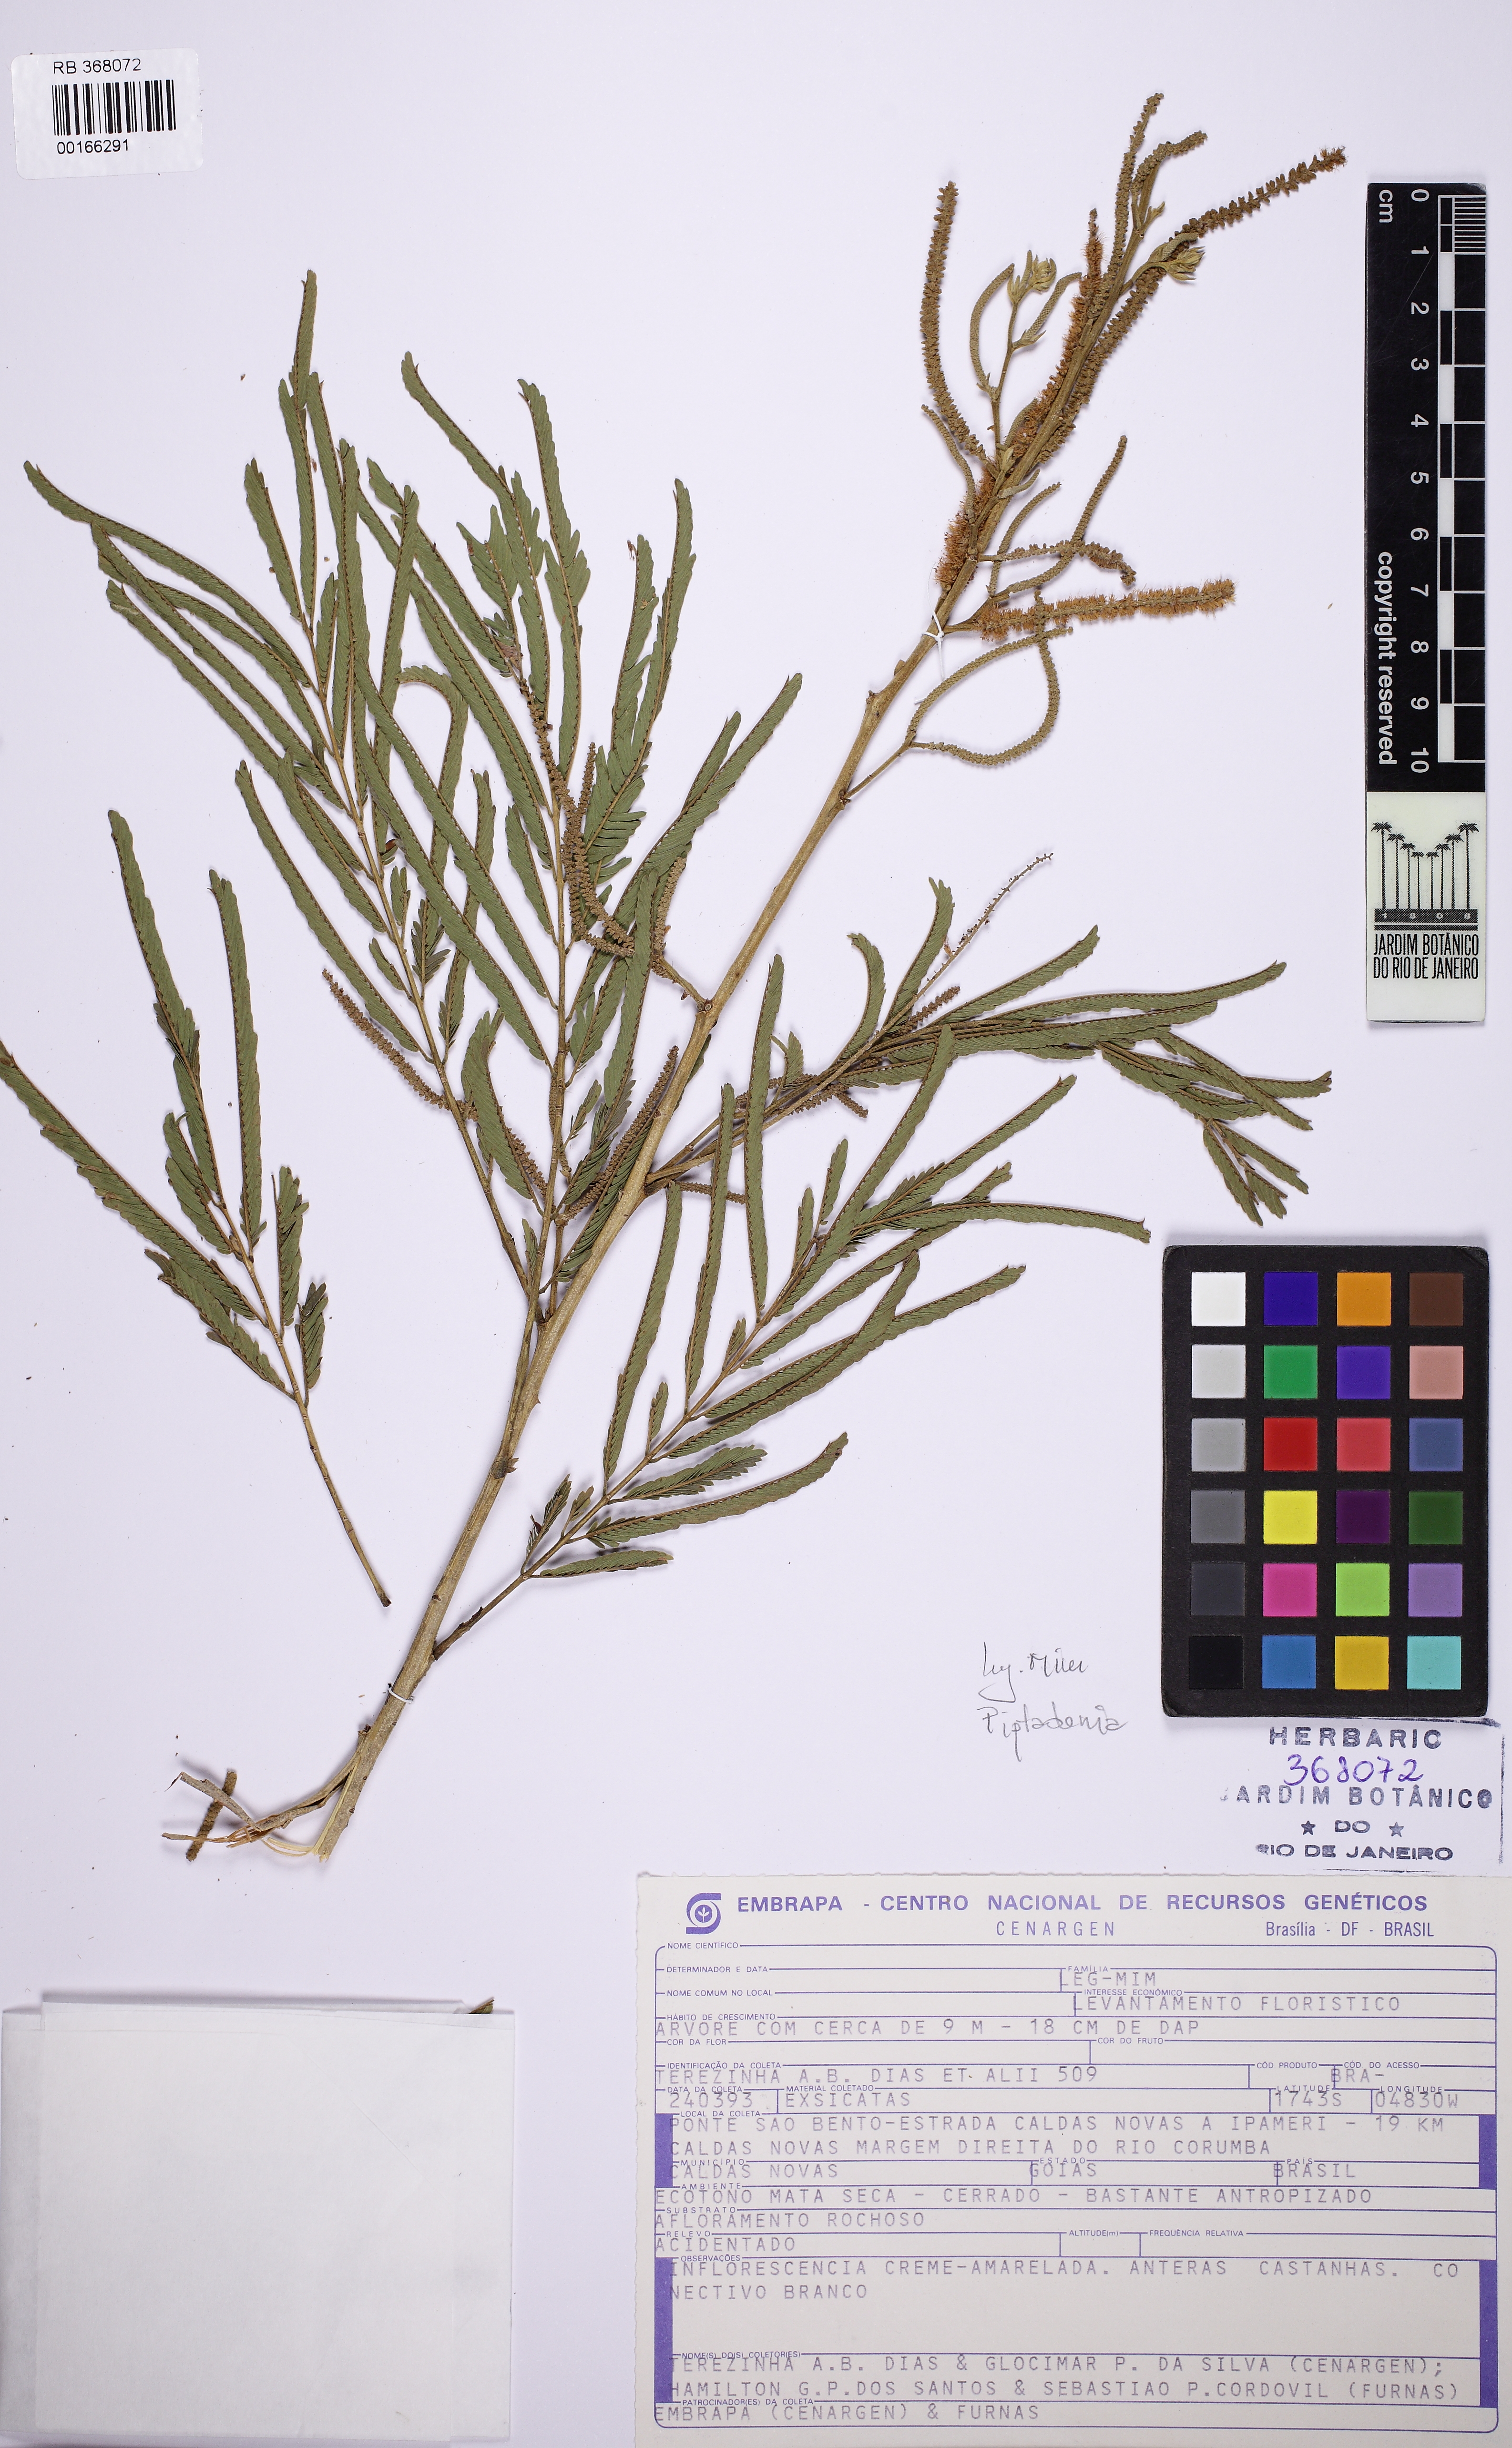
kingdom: Plantae
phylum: Tracheophyta
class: Magnoliopsida
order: Fabales
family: Fabaceae
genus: Pseudopiptadenia
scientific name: Pseudopiptadenia
